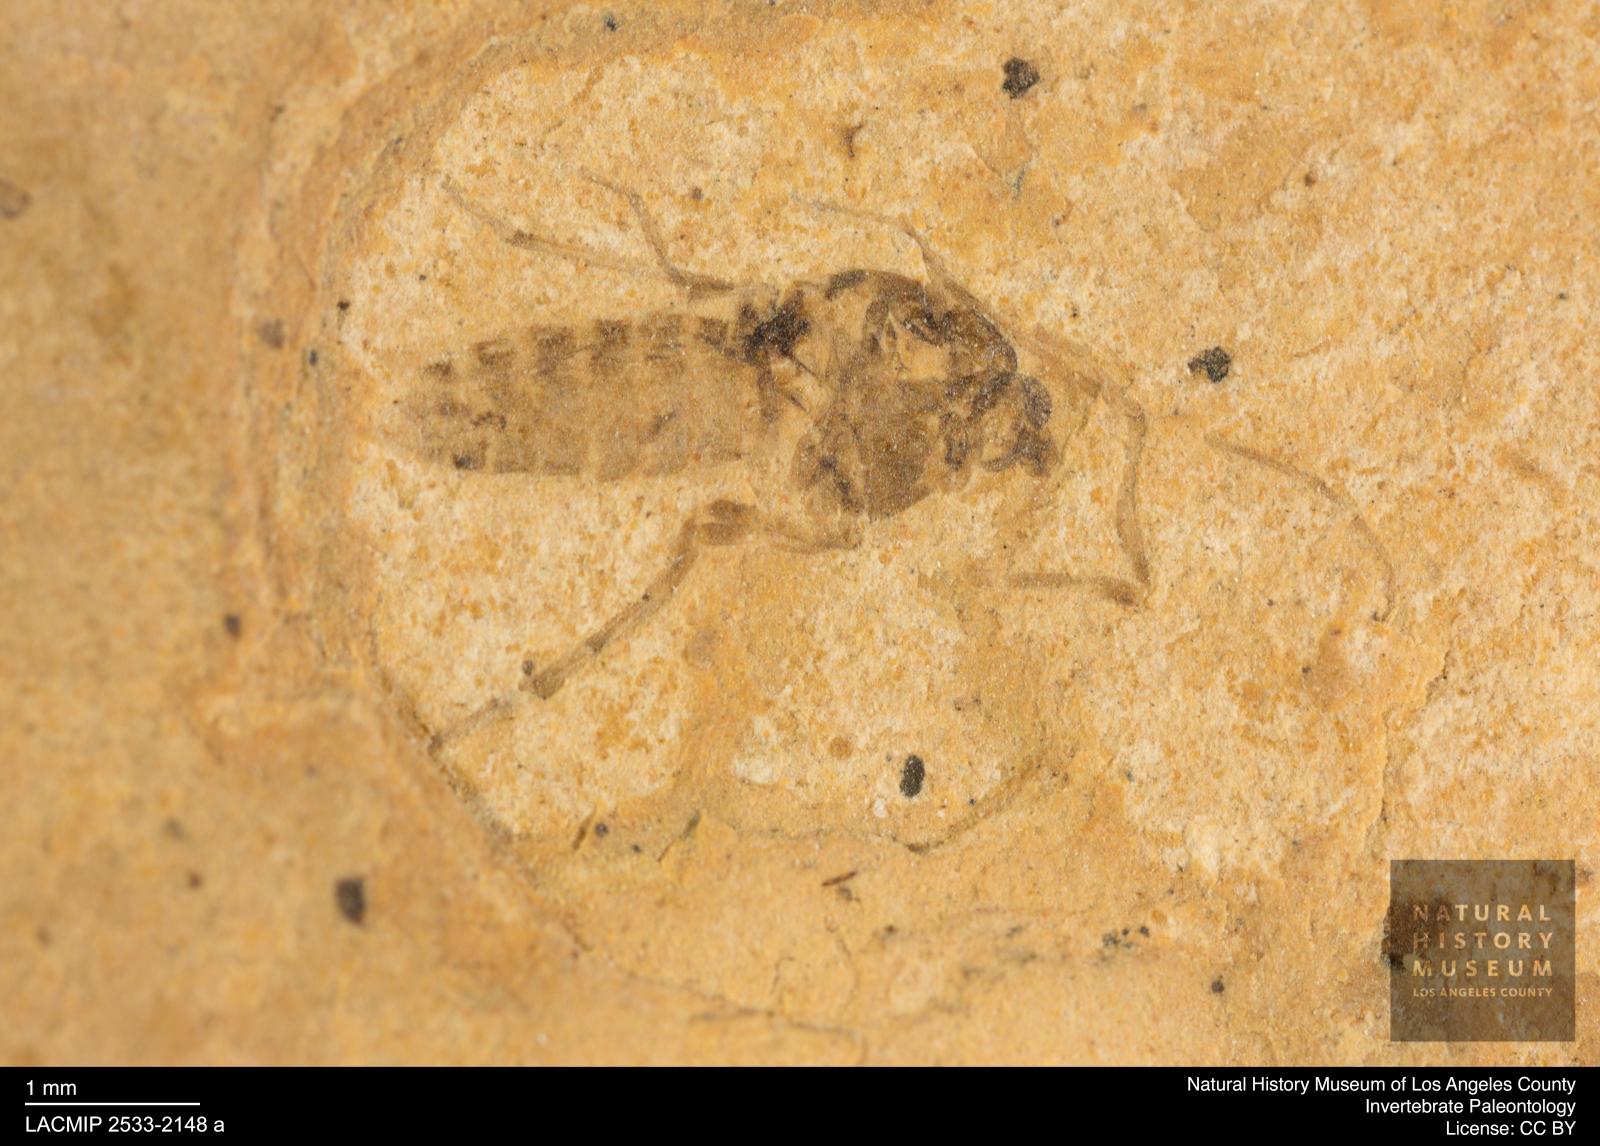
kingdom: Animalia
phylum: Arthropoda
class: Insecta
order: Diptera
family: Chironomidae
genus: Tanypus
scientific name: Tanypus dorminans
